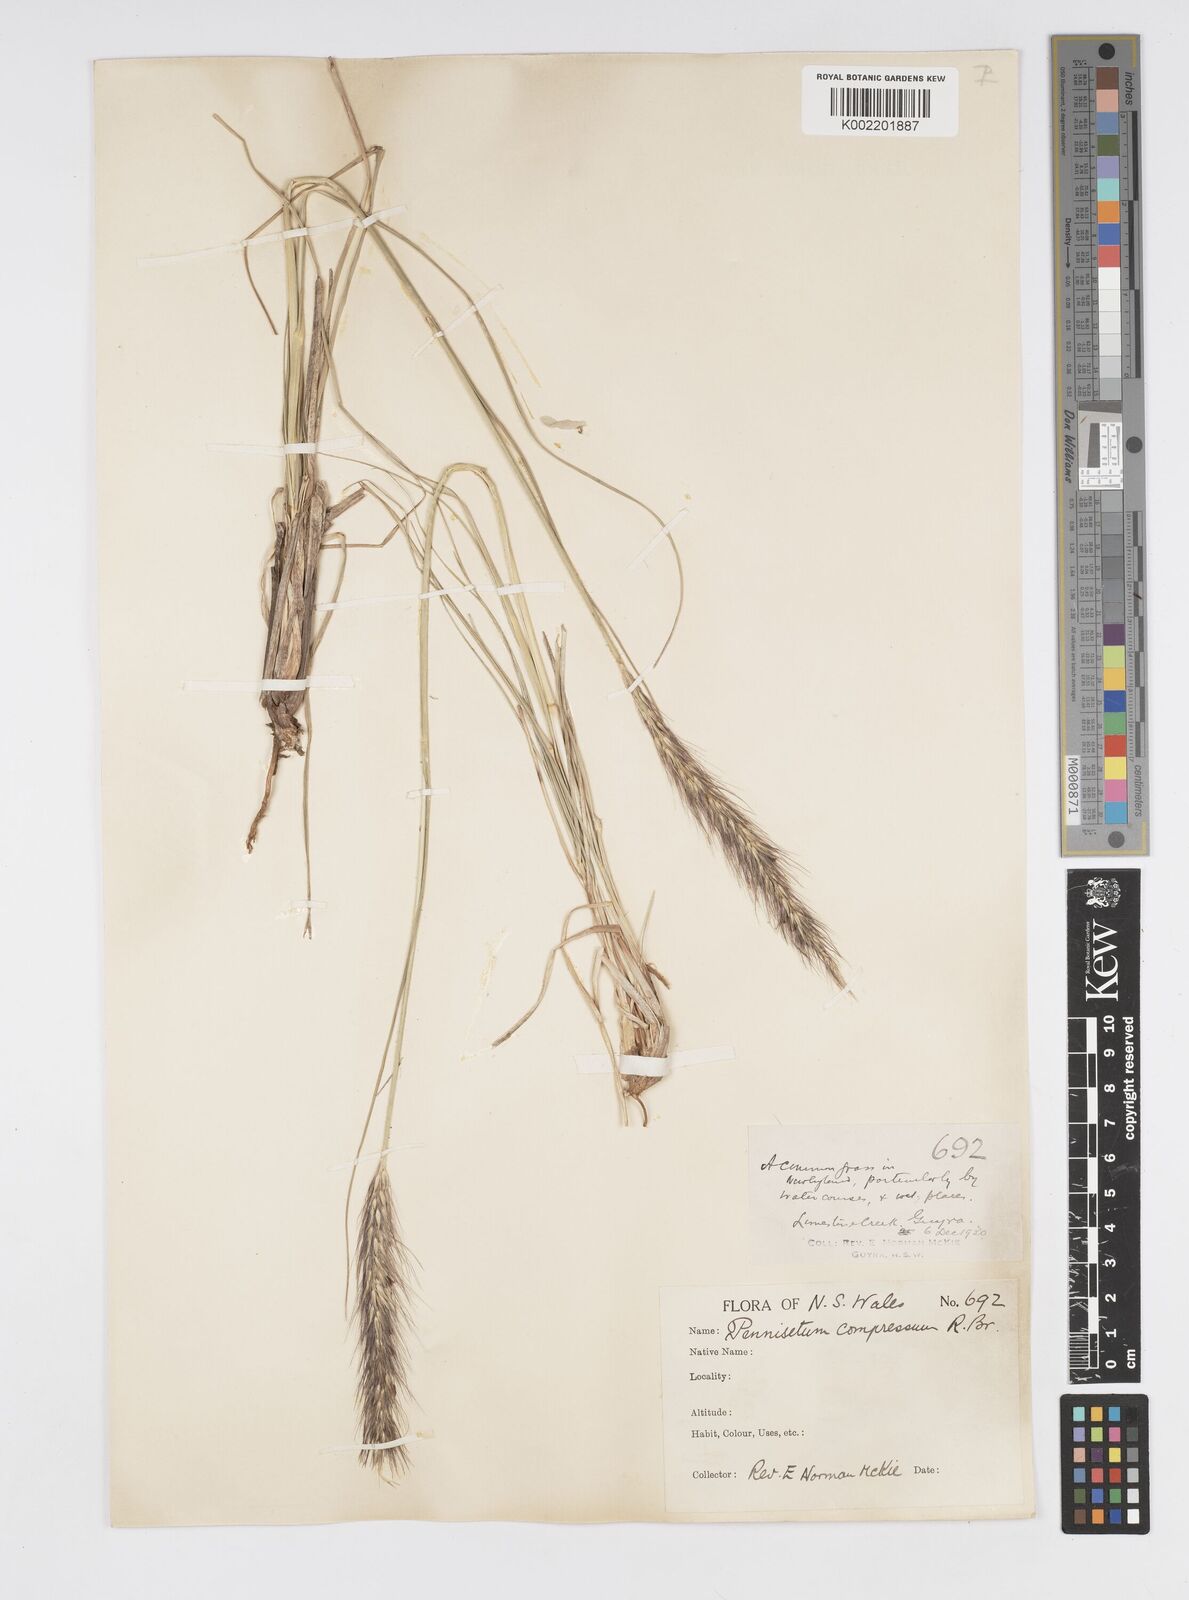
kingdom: Plantae
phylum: Tracheophyta
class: Liliopsida
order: Poales
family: Poaceae
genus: Cenchrus
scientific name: Cenchrus alopecuroides
